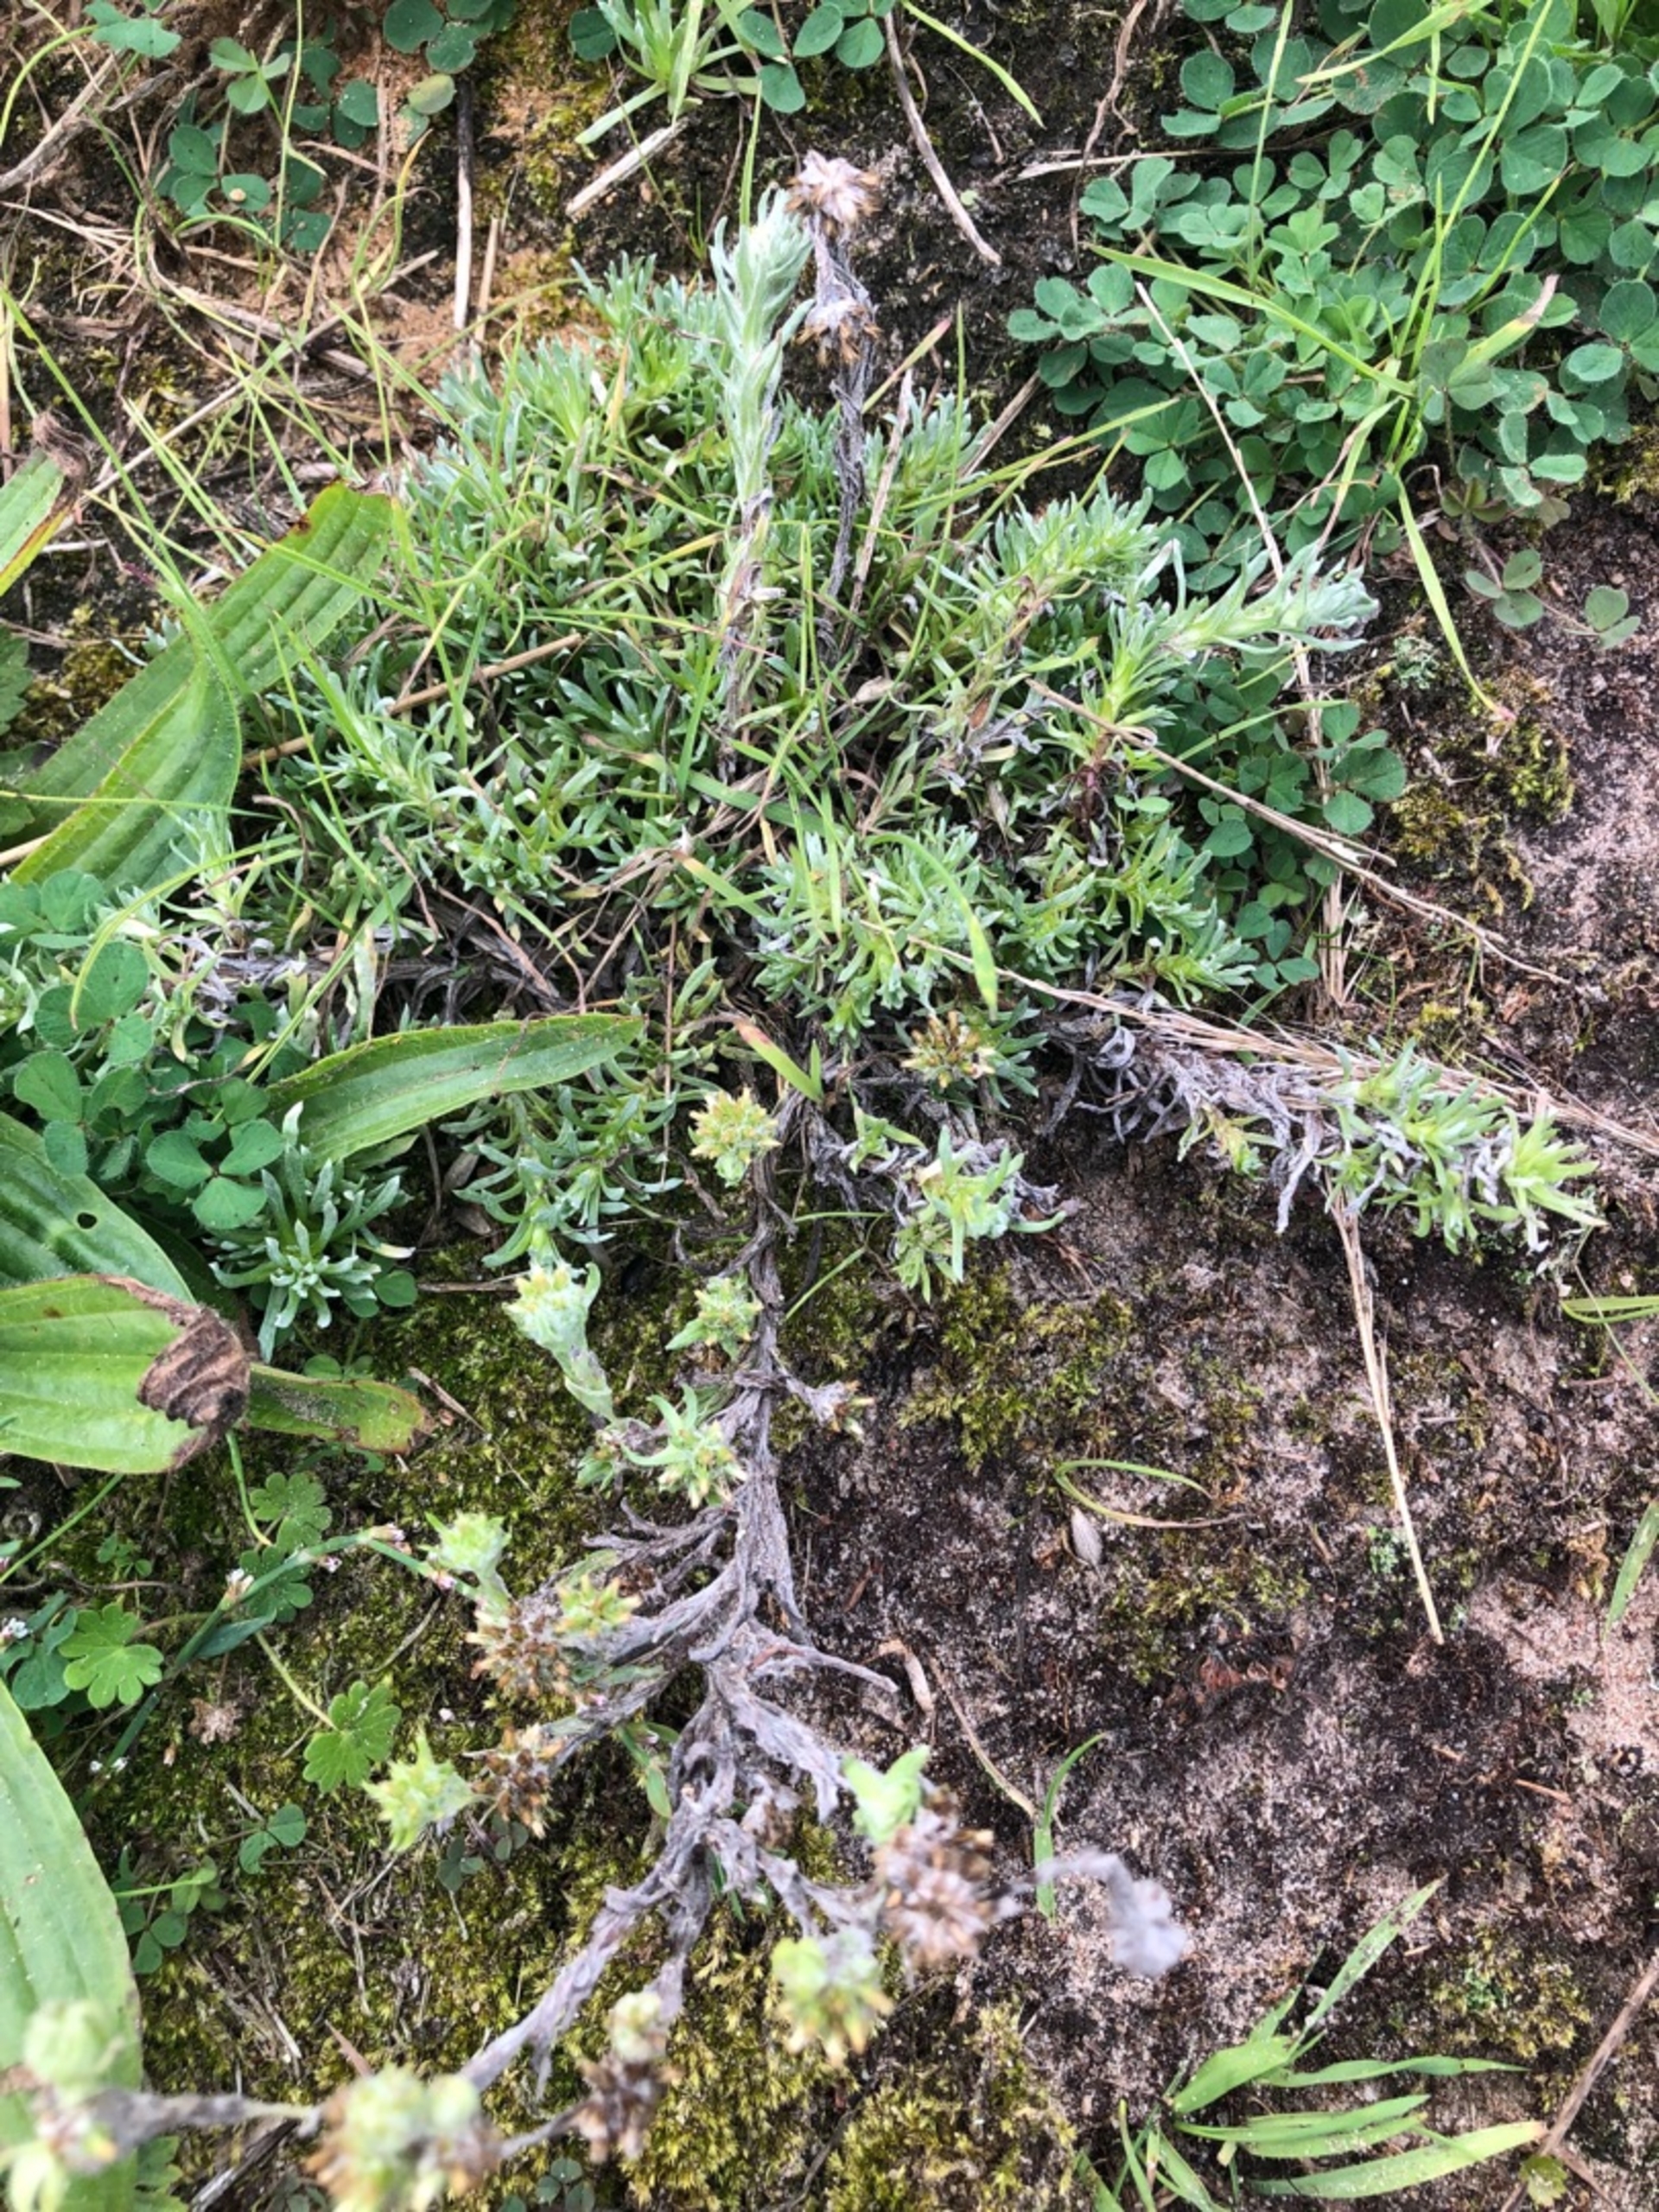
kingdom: Plantae
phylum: Tracheophyta
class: Magnoliopsida
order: Asterales
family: Asteraceae
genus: Filago
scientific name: Filago germanica
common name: Kugle-museurt
